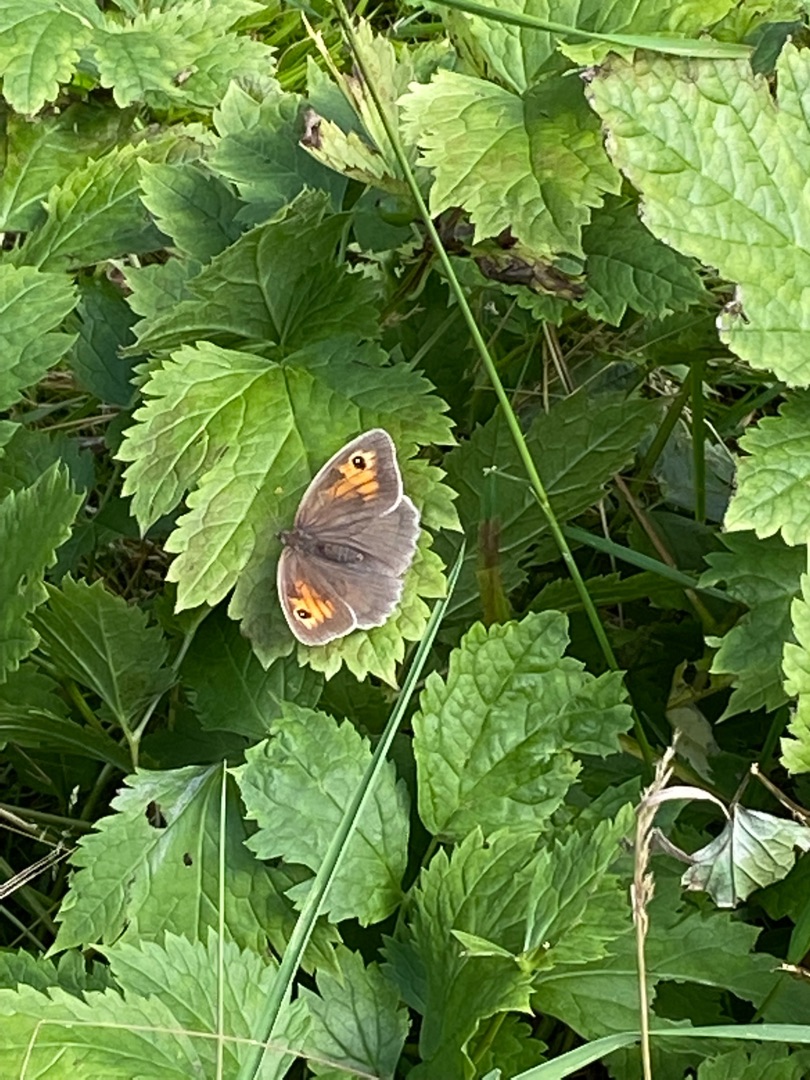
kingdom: Animalia
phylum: Arthropoda
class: Insecta
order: Lepidoptera
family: Nymphalidae
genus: Maniola
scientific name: Maniola jurtina
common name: Græsrandøje
